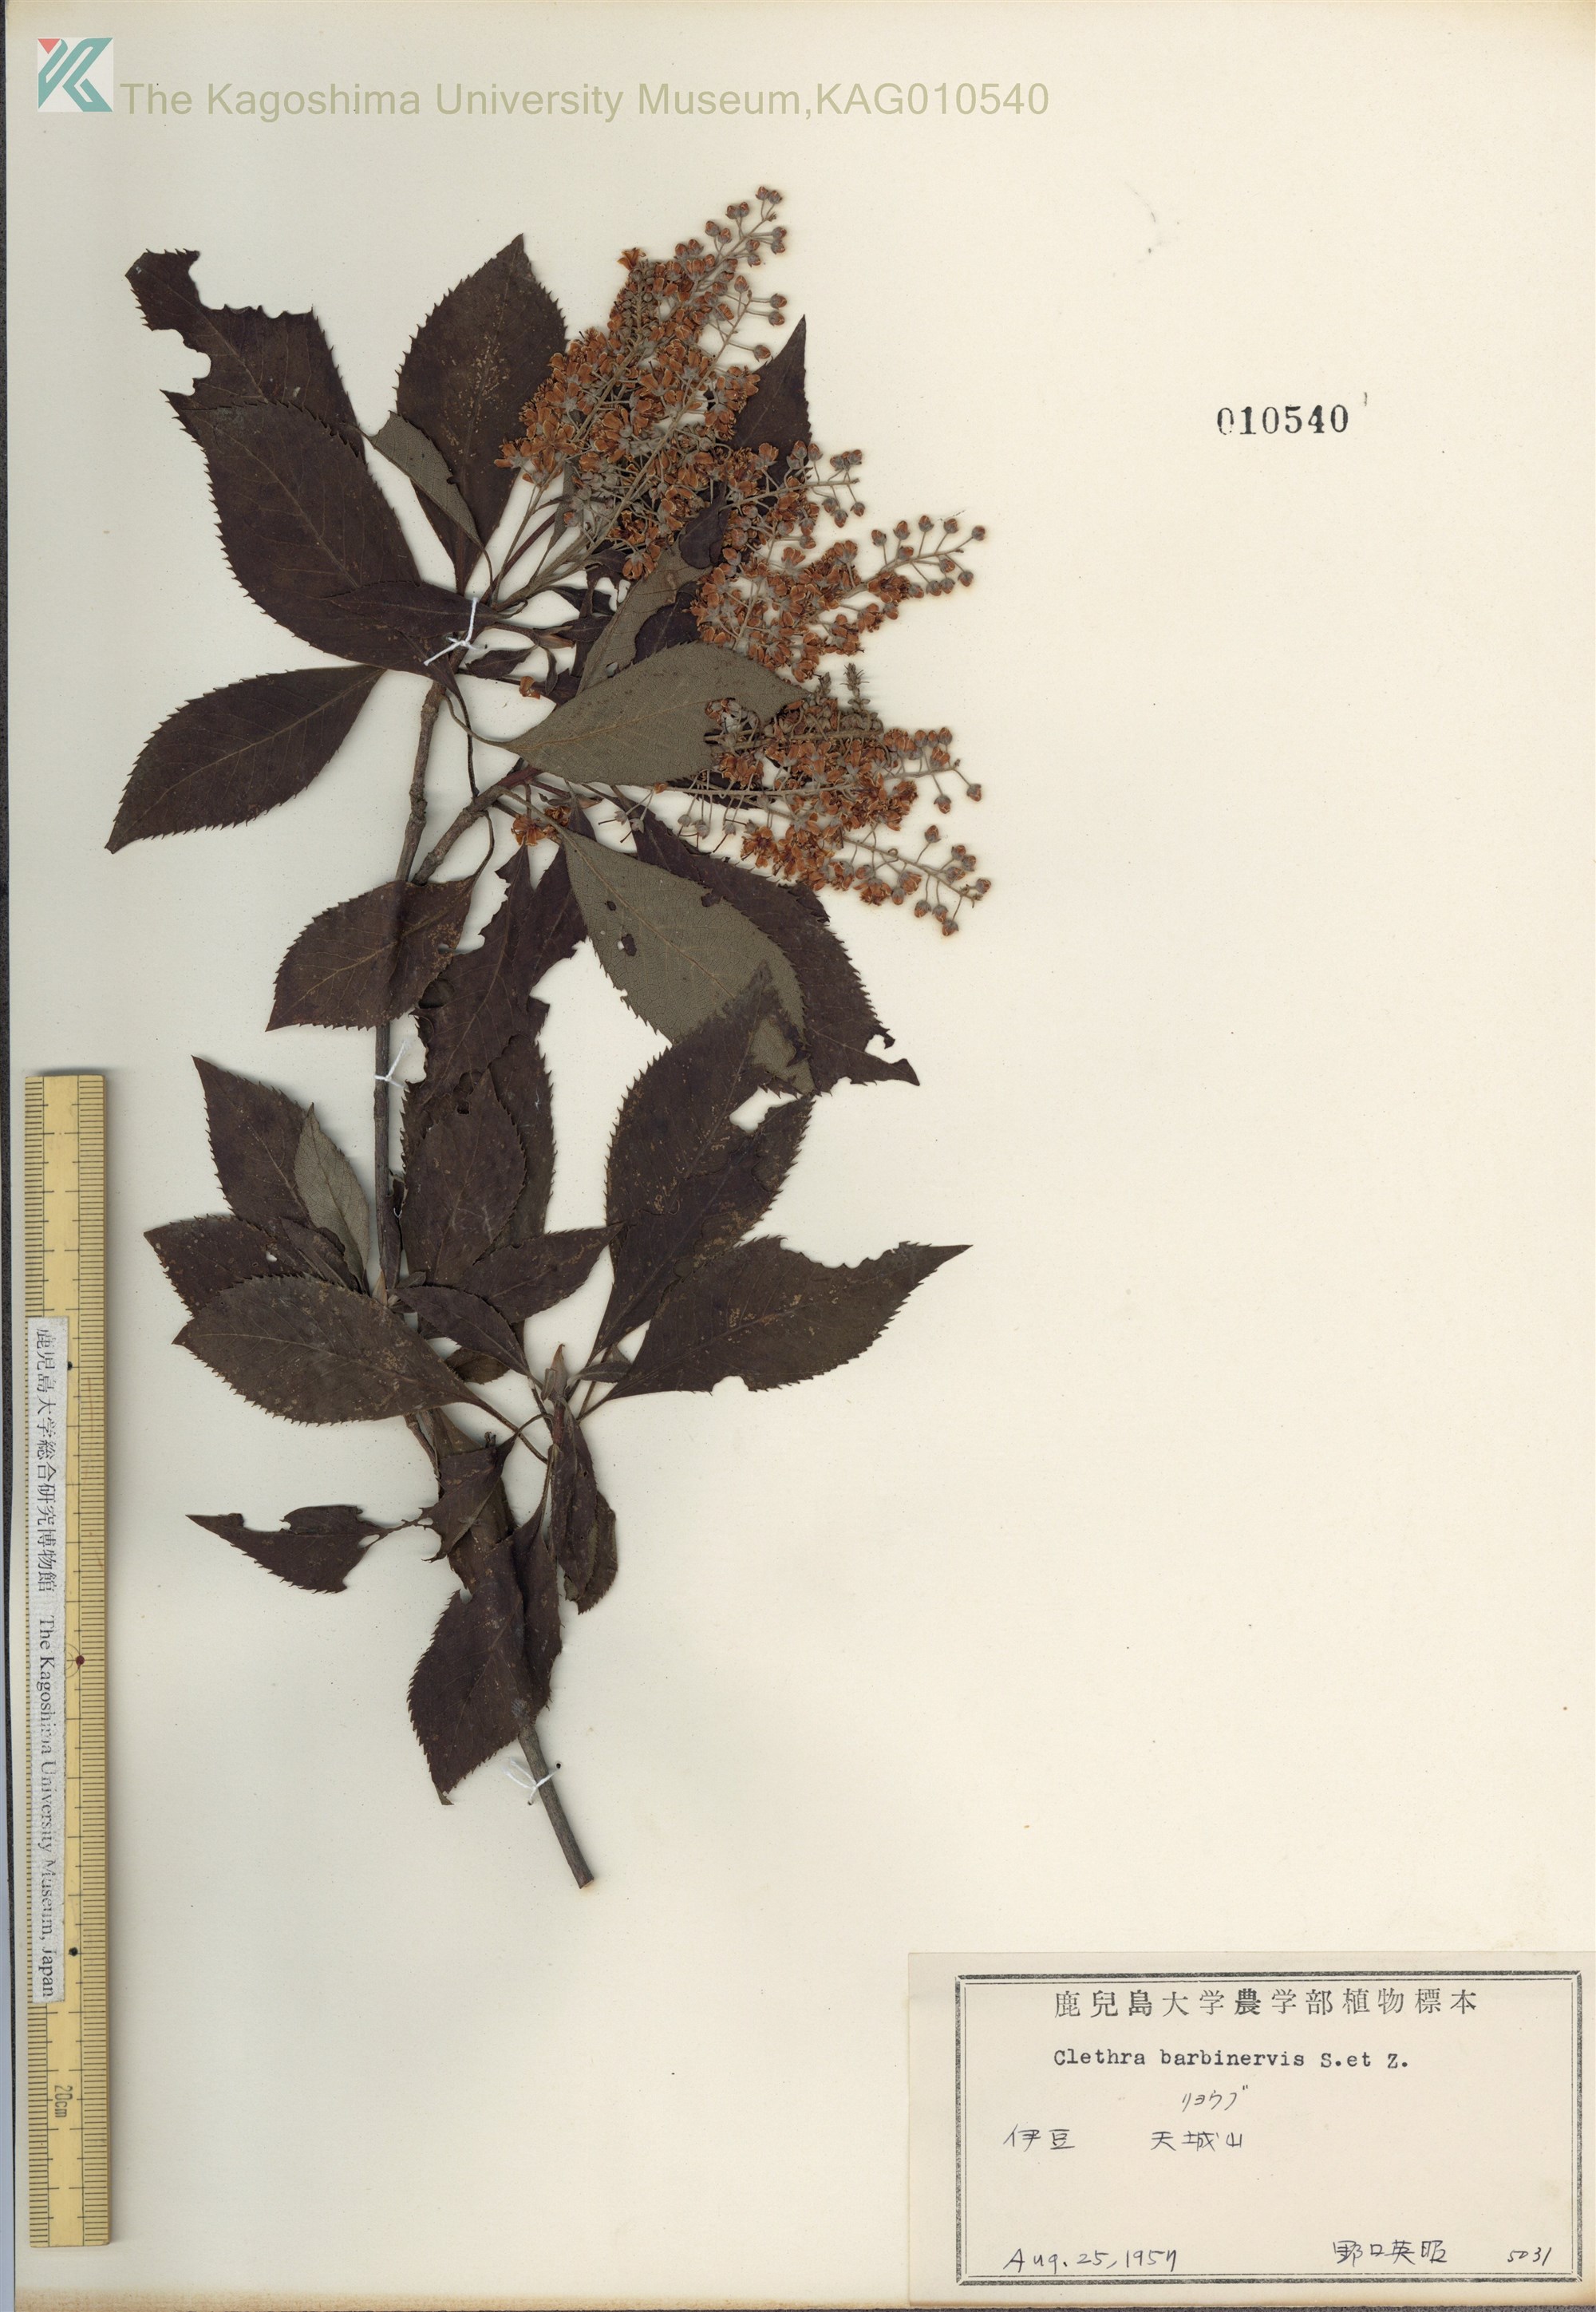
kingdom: Plantae
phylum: Tracheophyta
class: Magnoliopsida
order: Ericales
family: Clethraceae
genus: Clethra
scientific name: Clethra barbinervis
